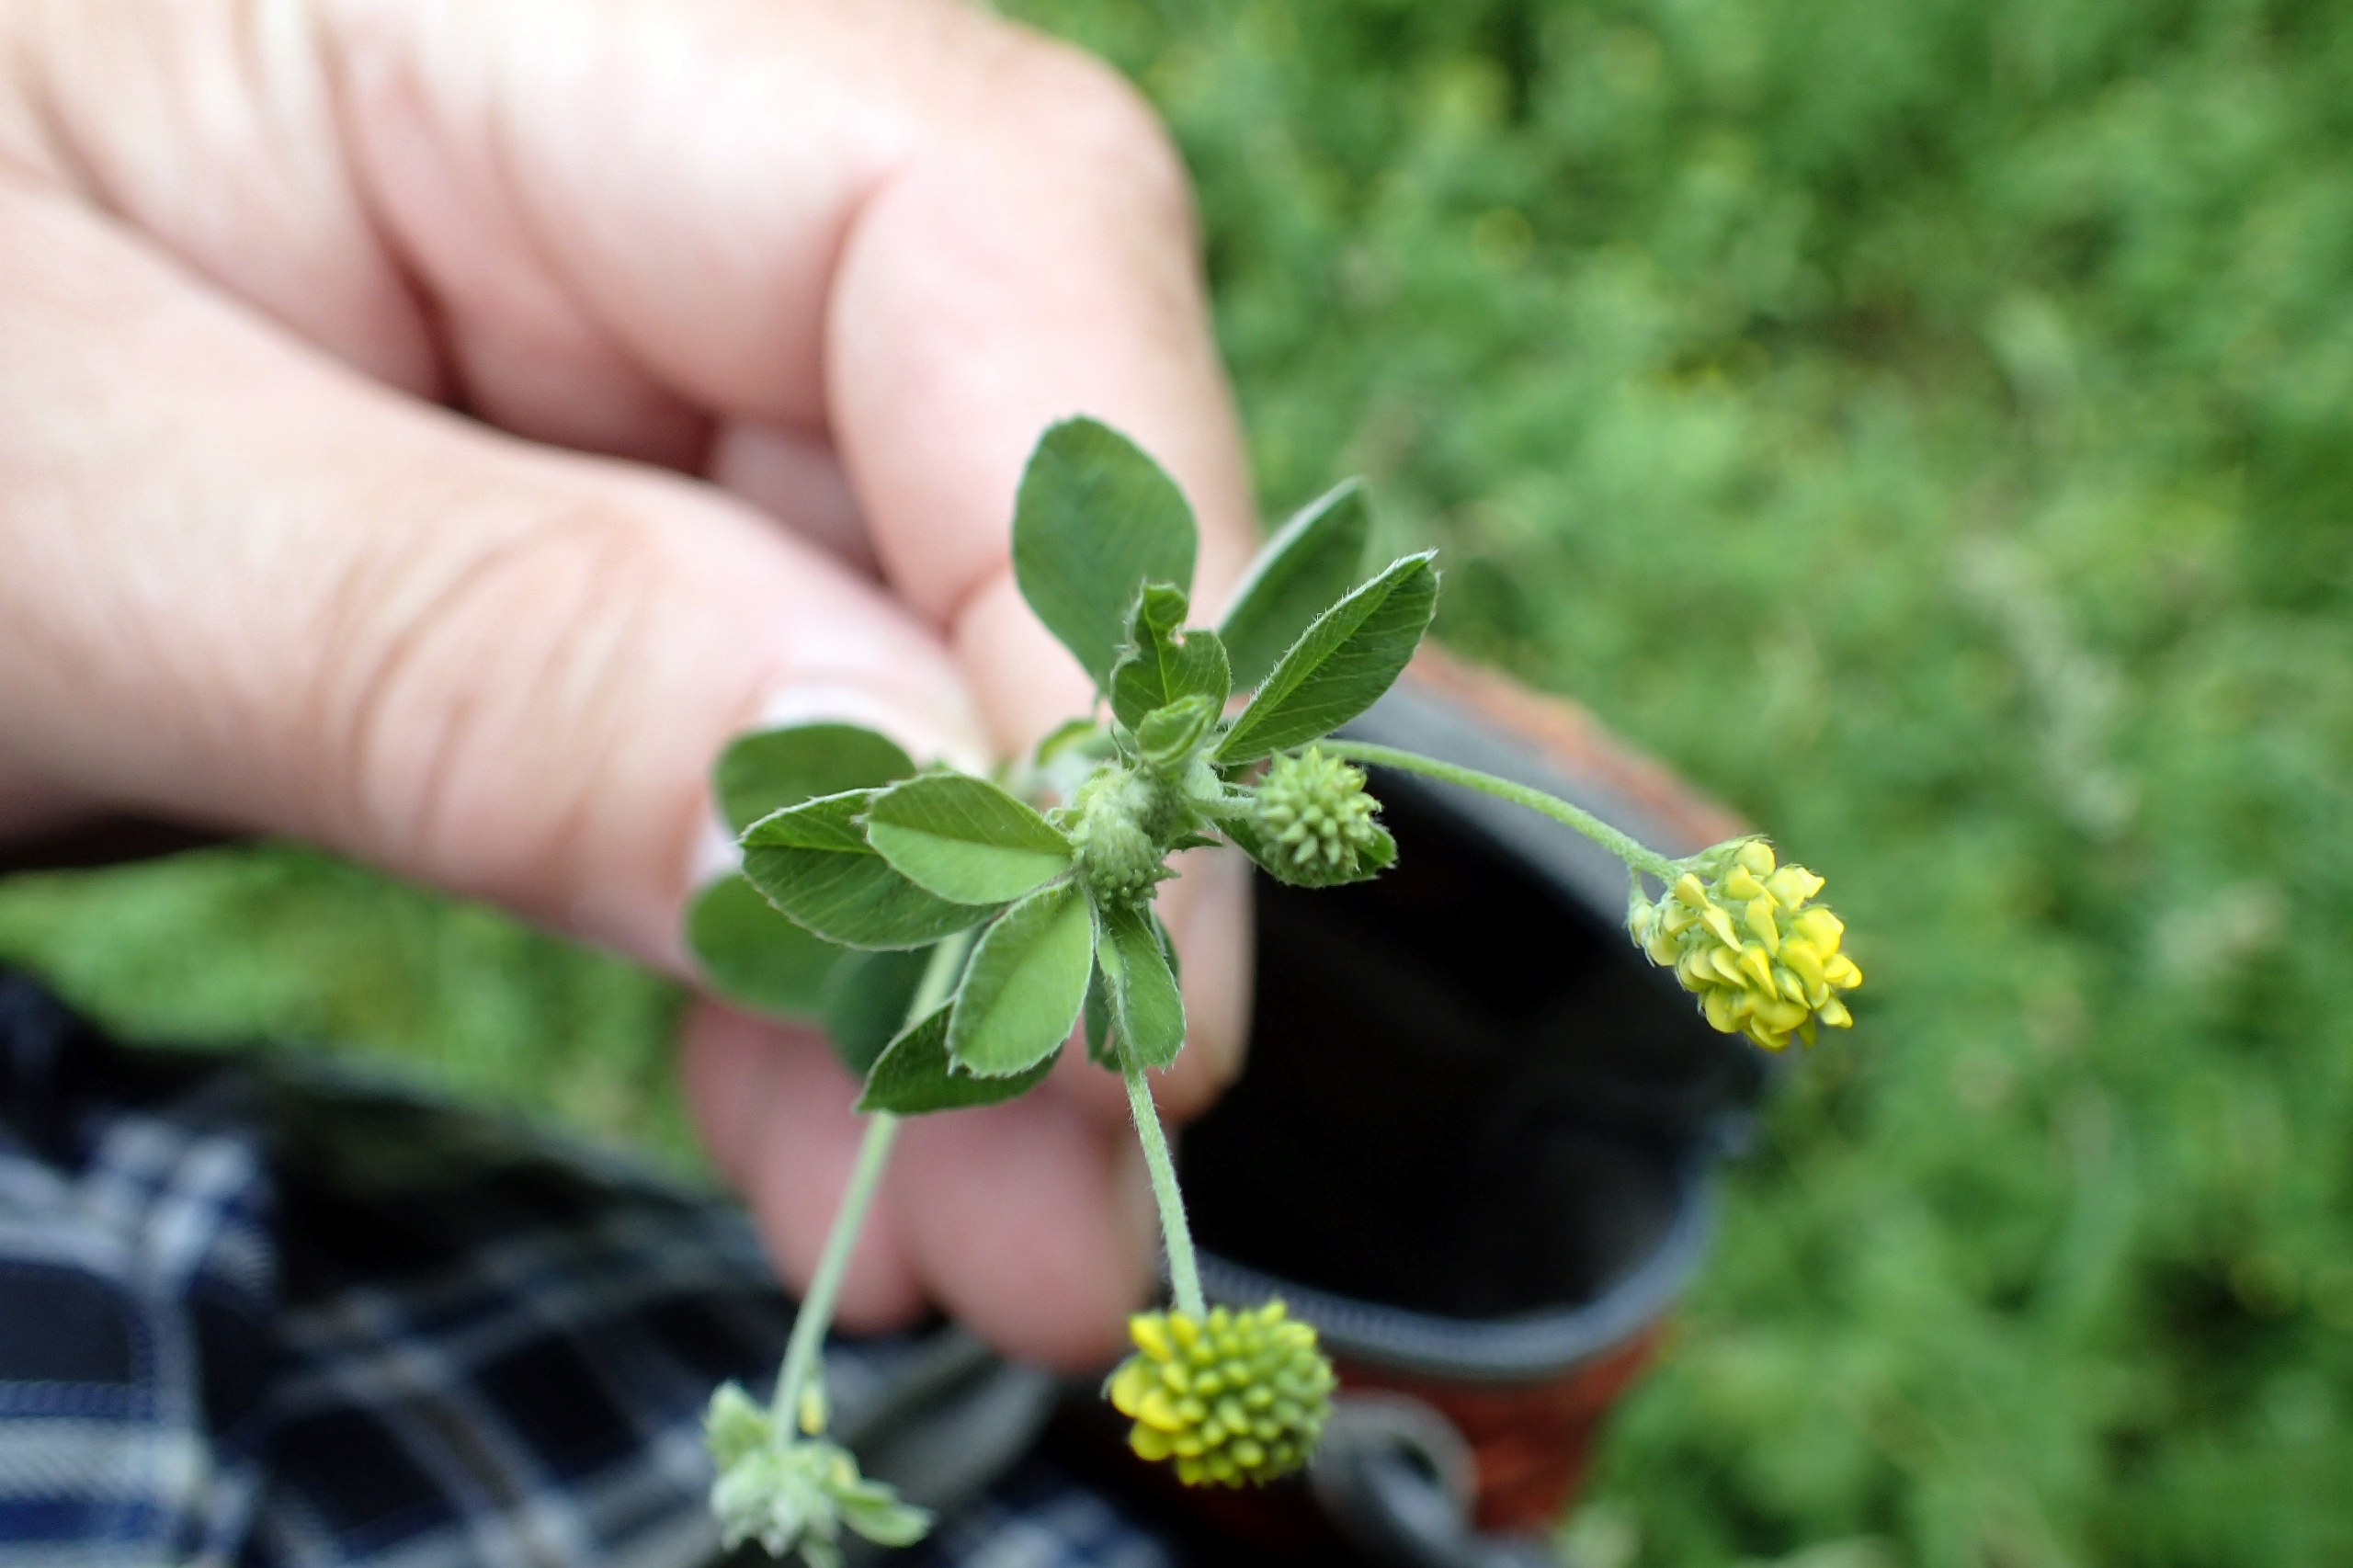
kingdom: Plantae
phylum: Tracheophyta
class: Magnoliopsida
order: Fabales
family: Fabaceae
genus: Medicago
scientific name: Medicago lupulina
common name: Humle-sneglebælg
